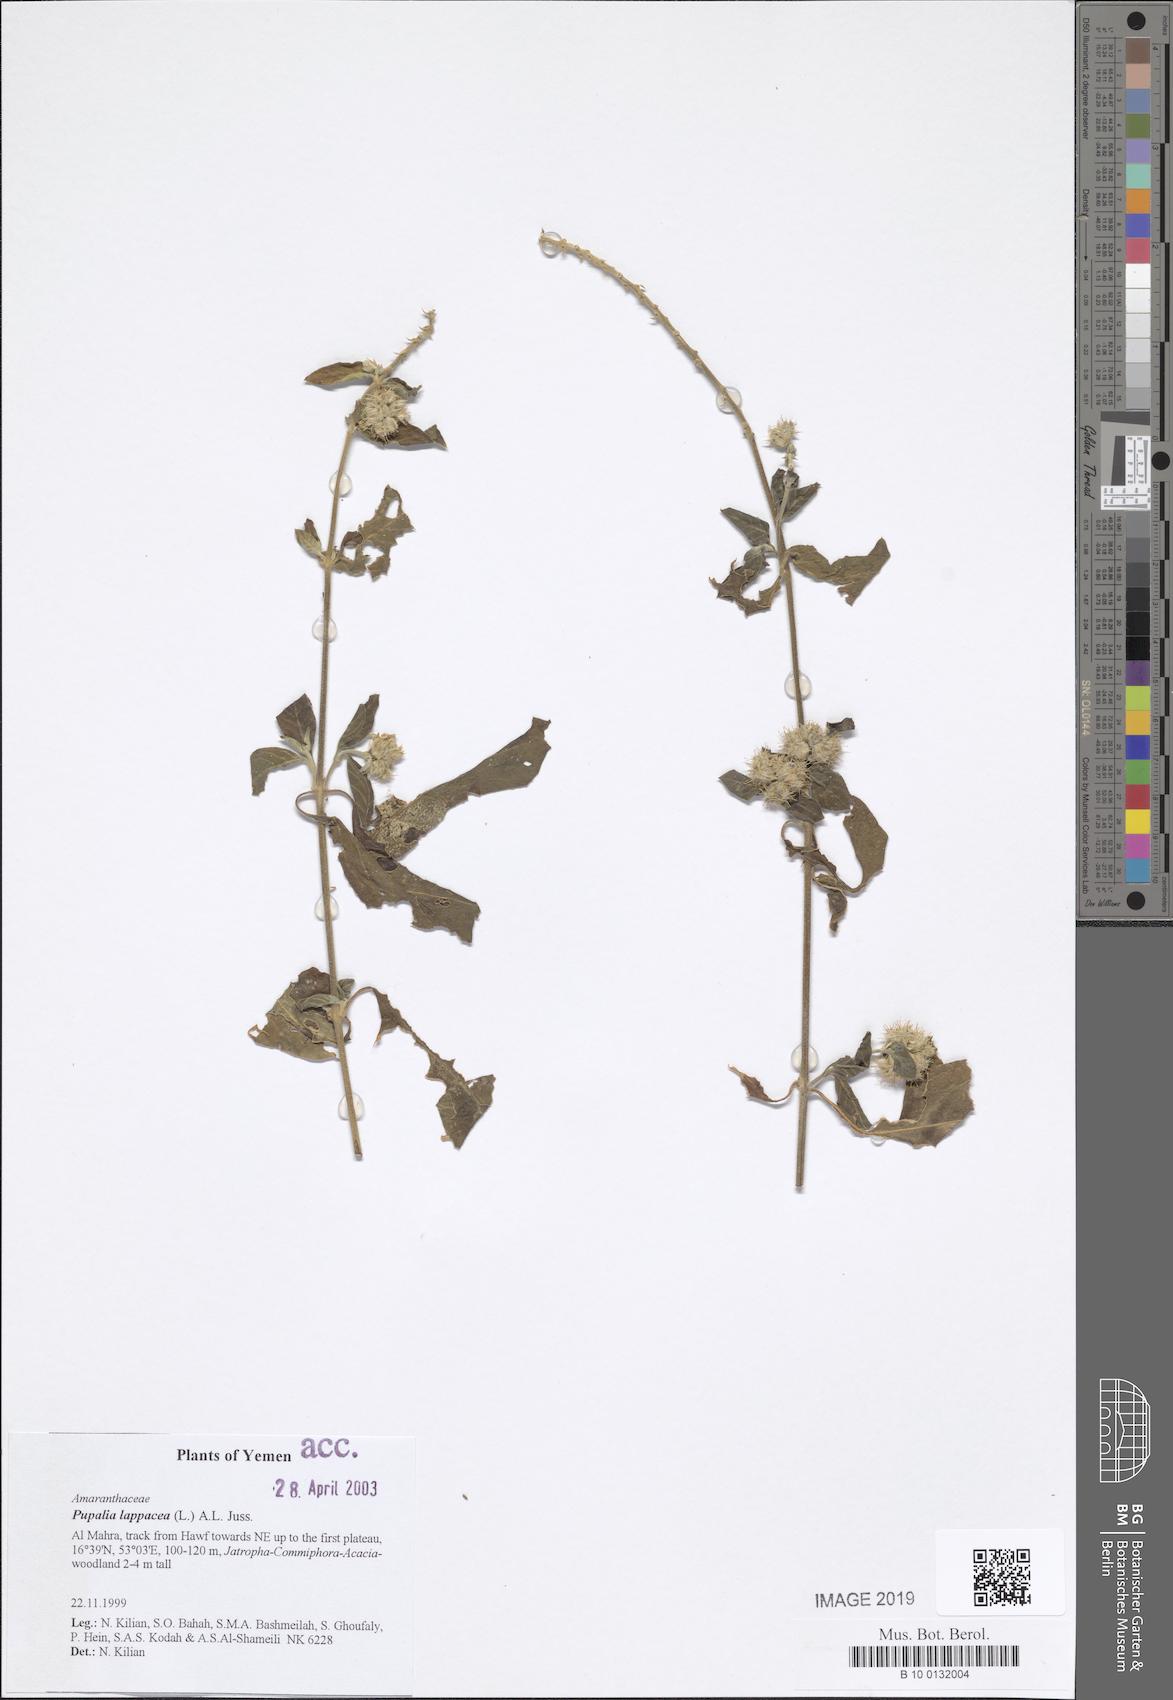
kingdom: Plantae
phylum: Tracheophyta
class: Magnoliopsida
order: Caryophyllales
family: Amaranthaceae
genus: Pupalia
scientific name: Pupalia lappacea
